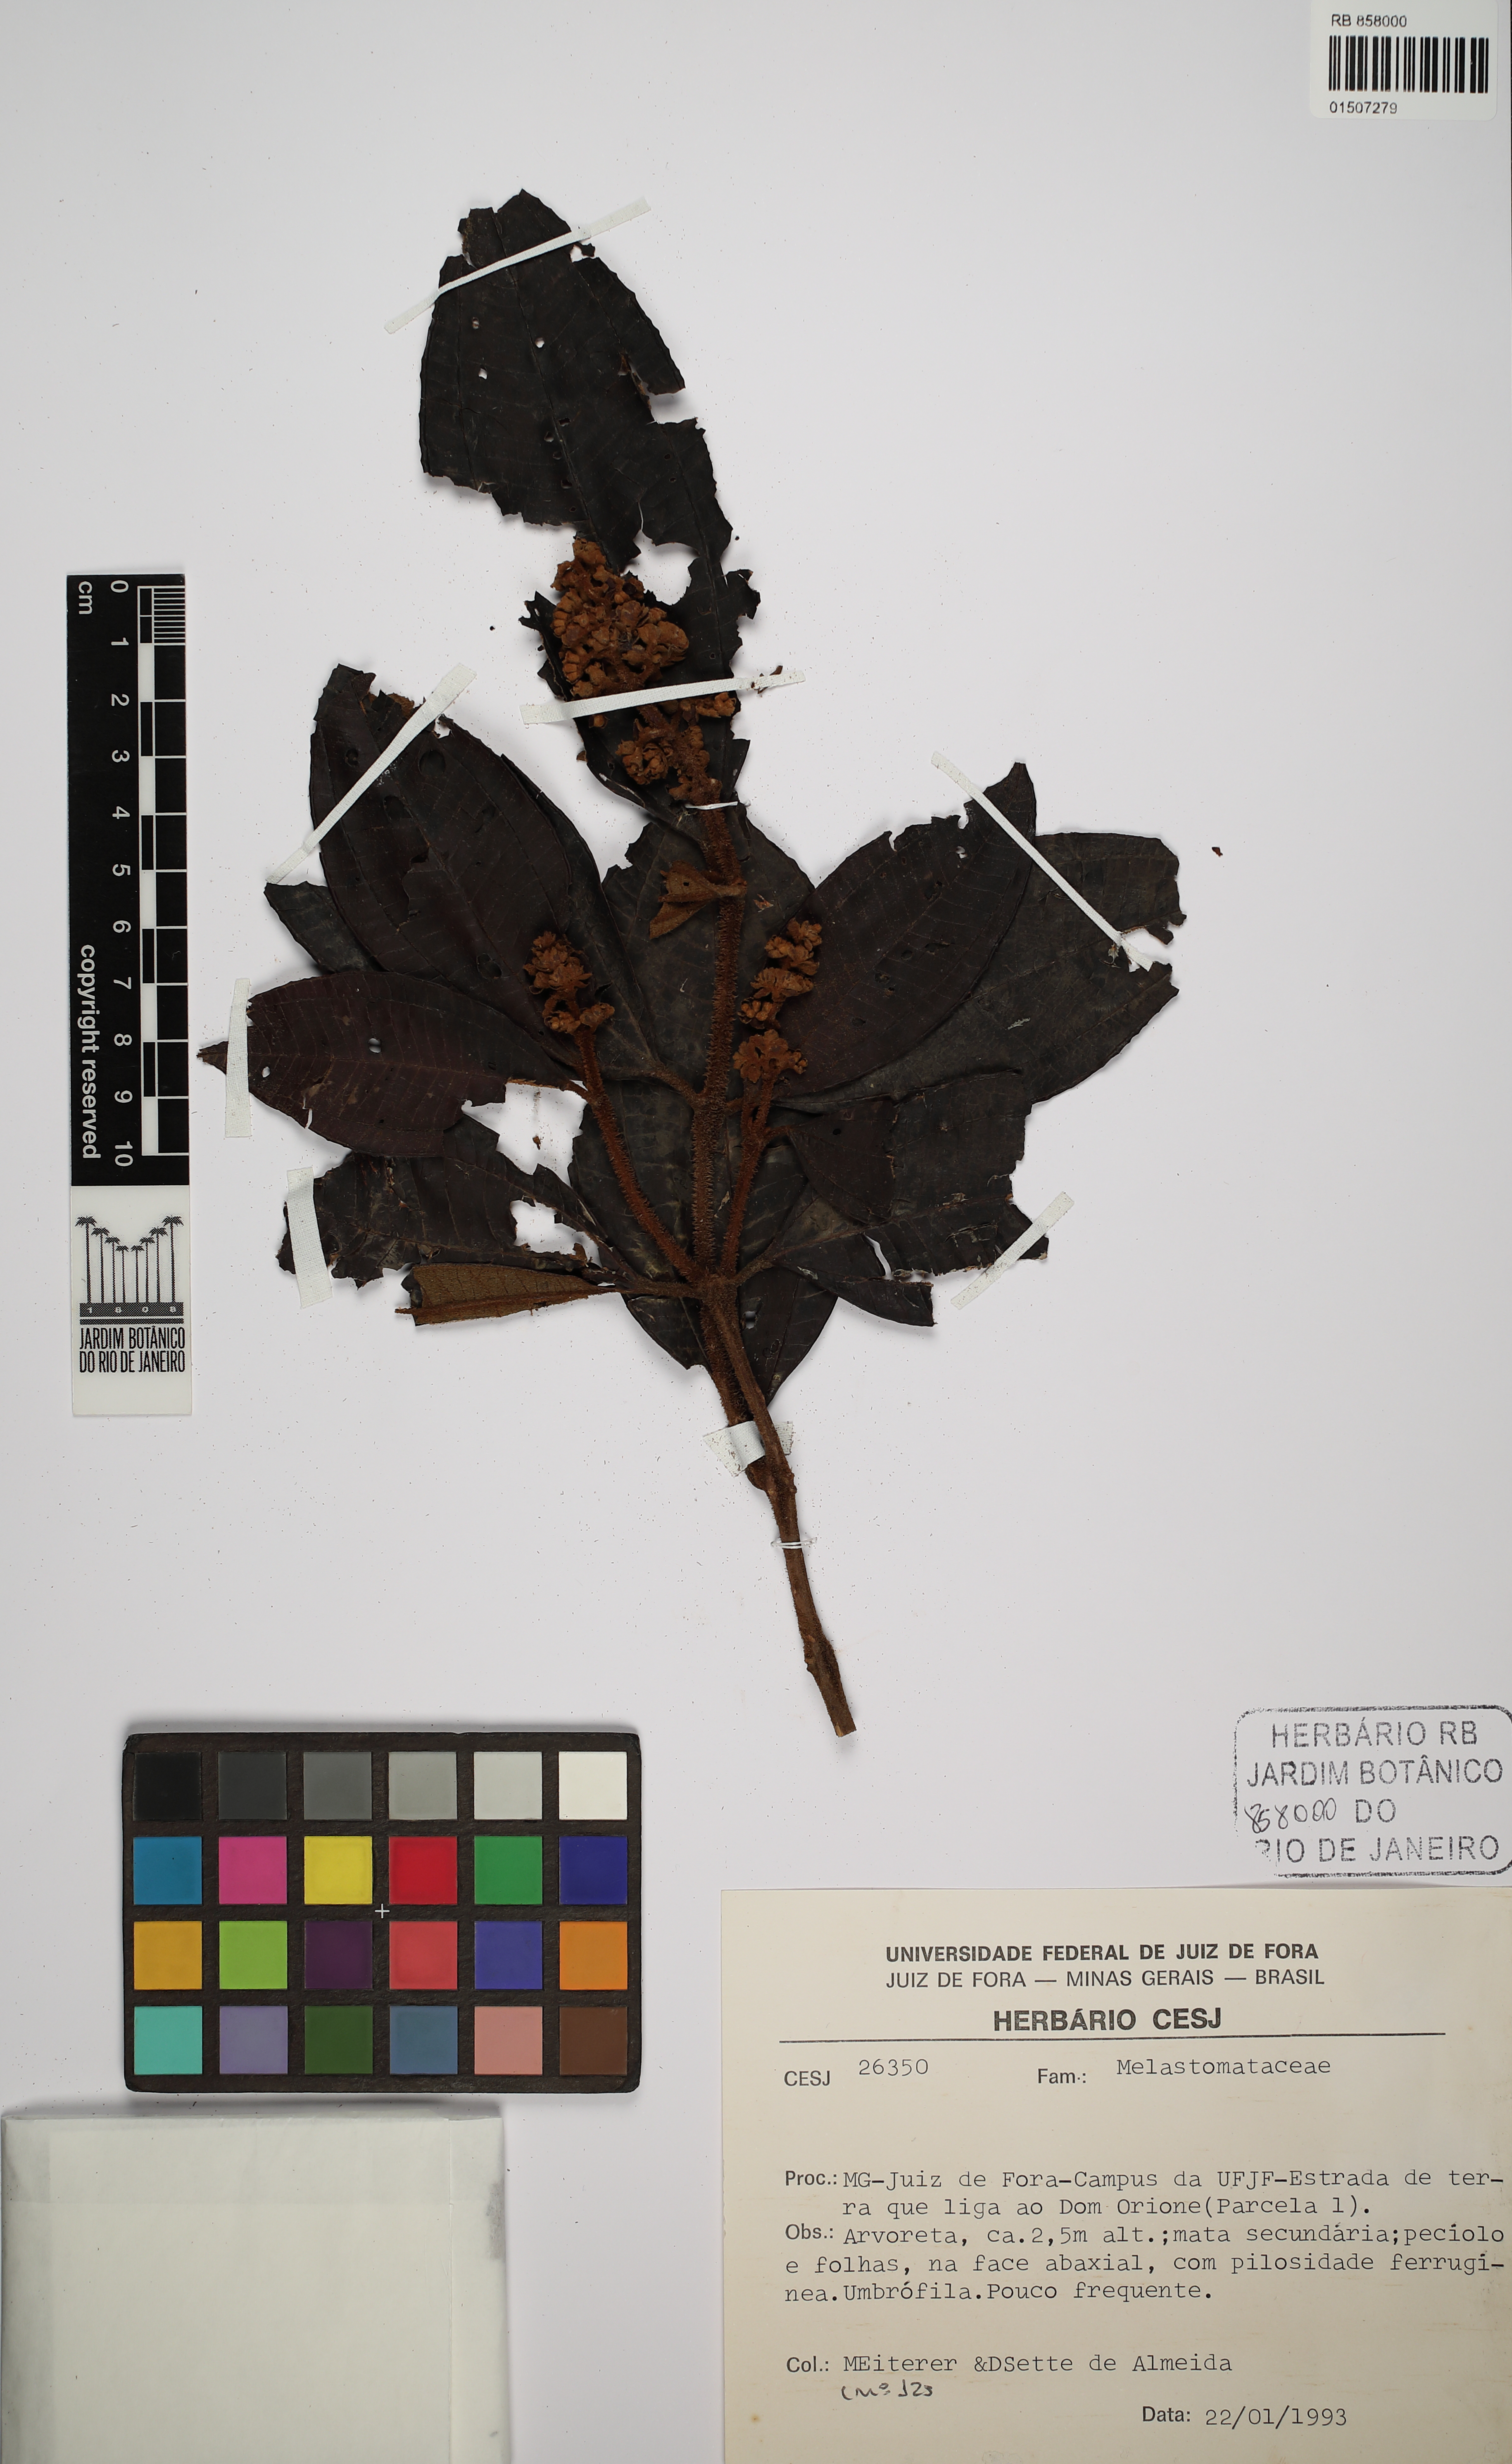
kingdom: Plantae
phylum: Tracheophyta
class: Magnoliopsida
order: Myrtales
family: Melastomataceae
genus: Miconia
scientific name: Miconia
